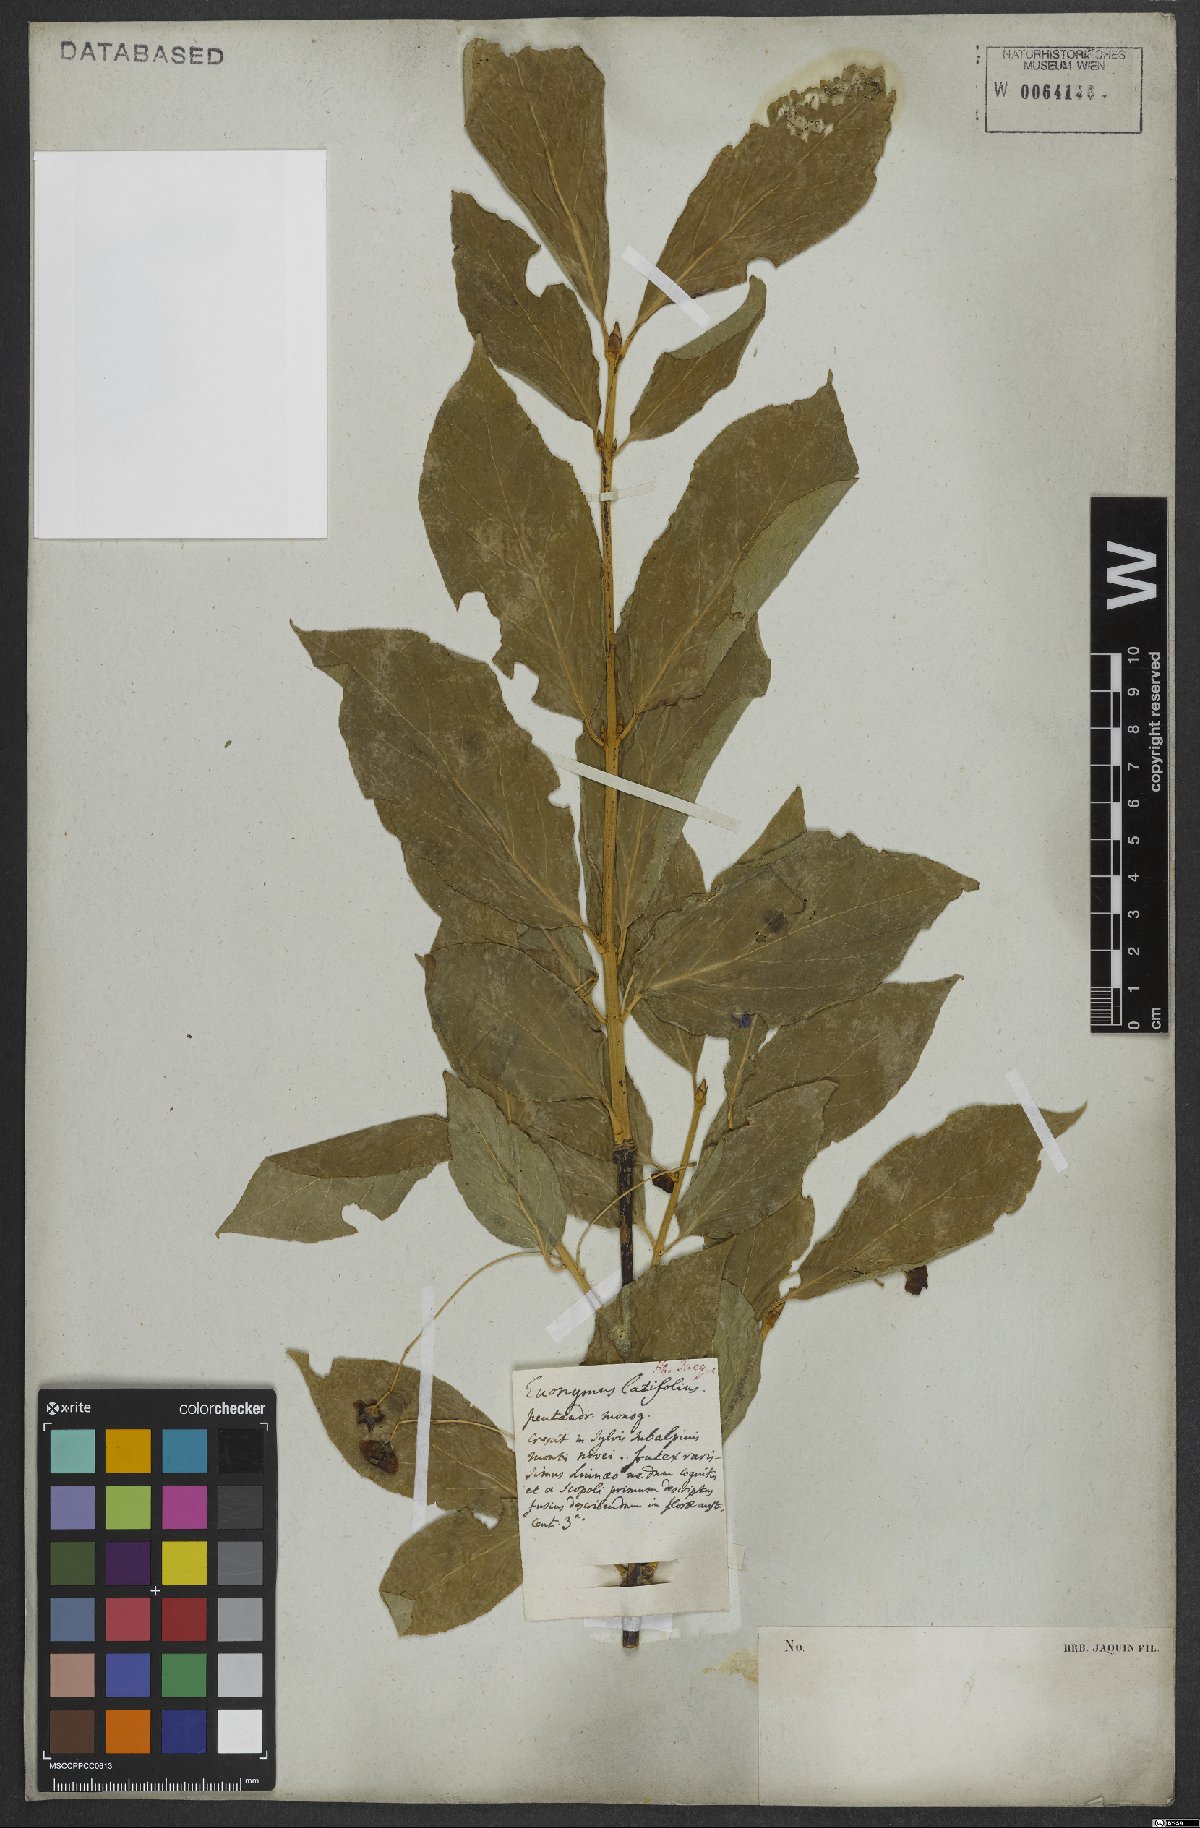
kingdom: Plantae
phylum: Tracheophyta
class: Magnoliopsida
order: Celastrales
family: Celastraceae
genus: Euonymus
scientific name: Euonymus latifolius
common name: Large-leaved spindle
